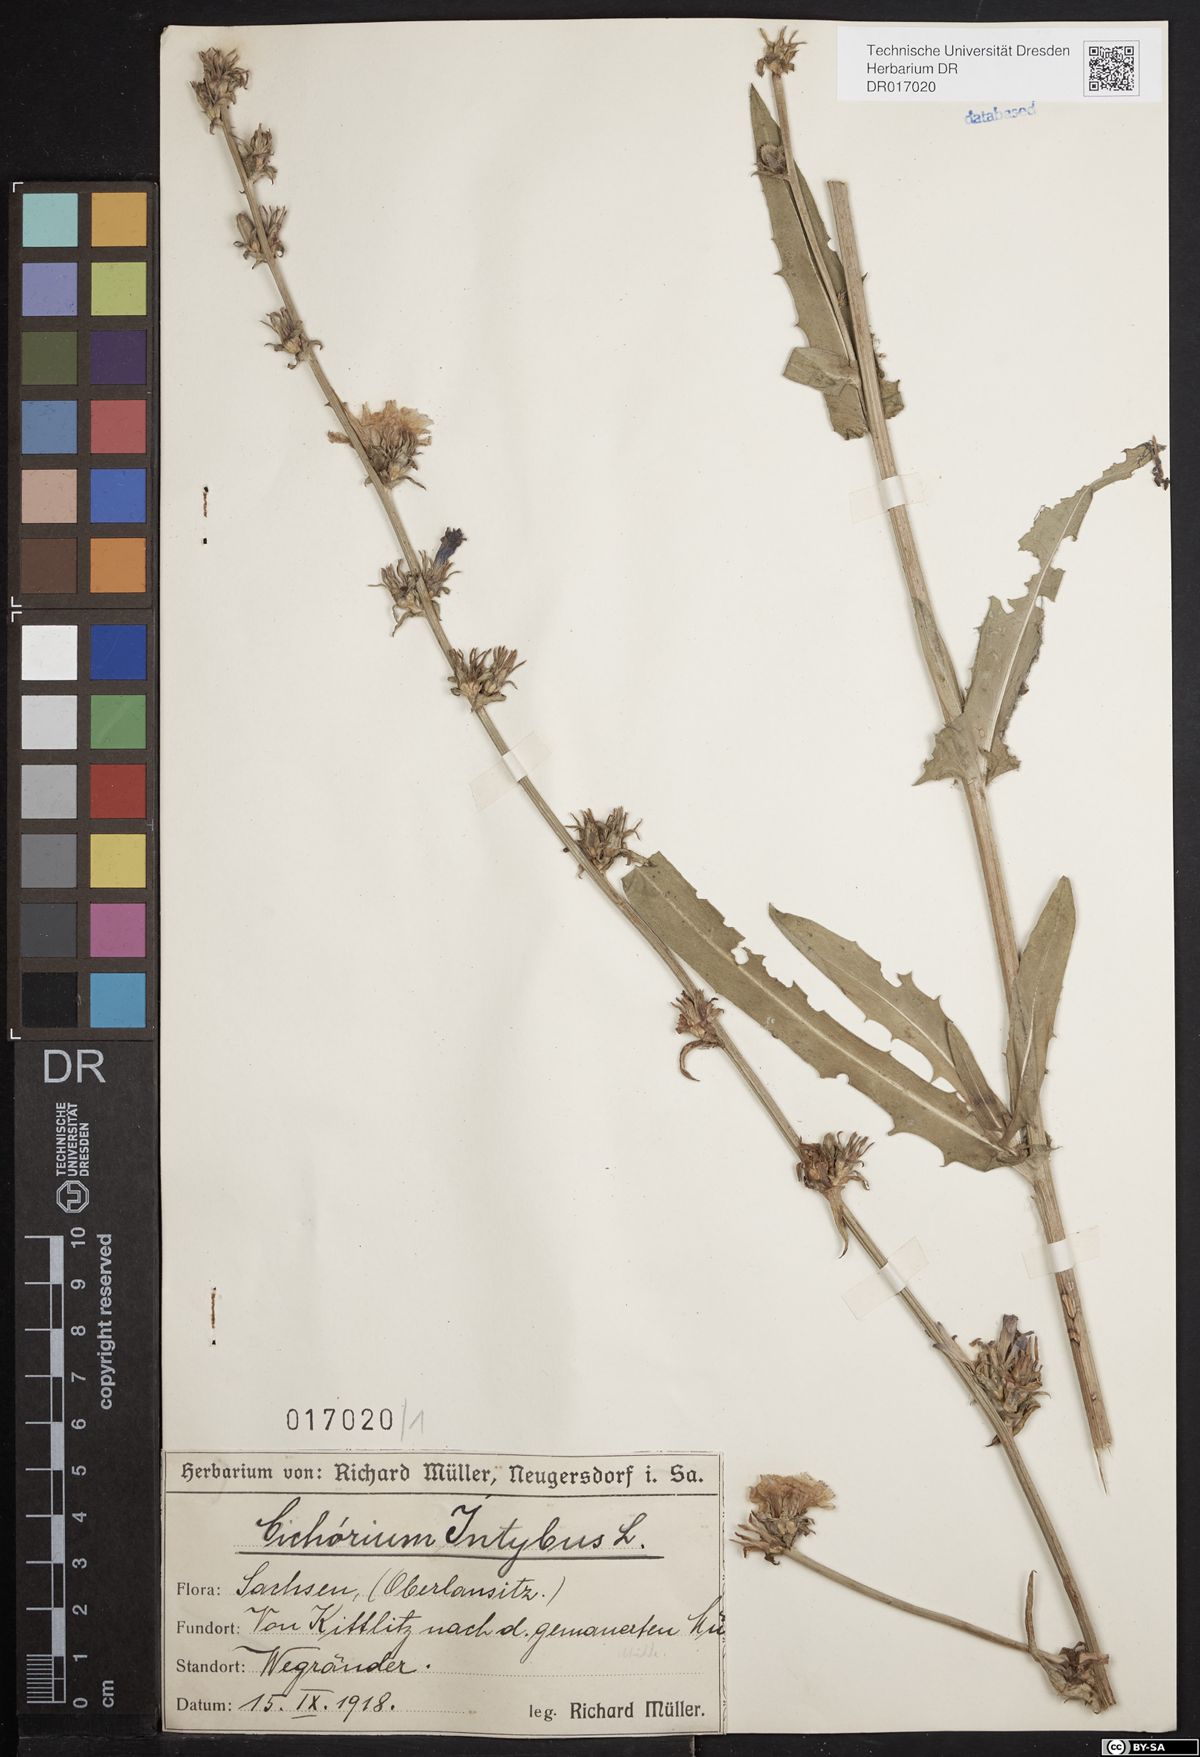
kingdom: Plantae
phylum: Tracheophyta
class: Magnoliopsida
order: Asterales
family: Asteraceae
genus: Cichorium
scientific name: Cichorium intybus
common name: Chicory
